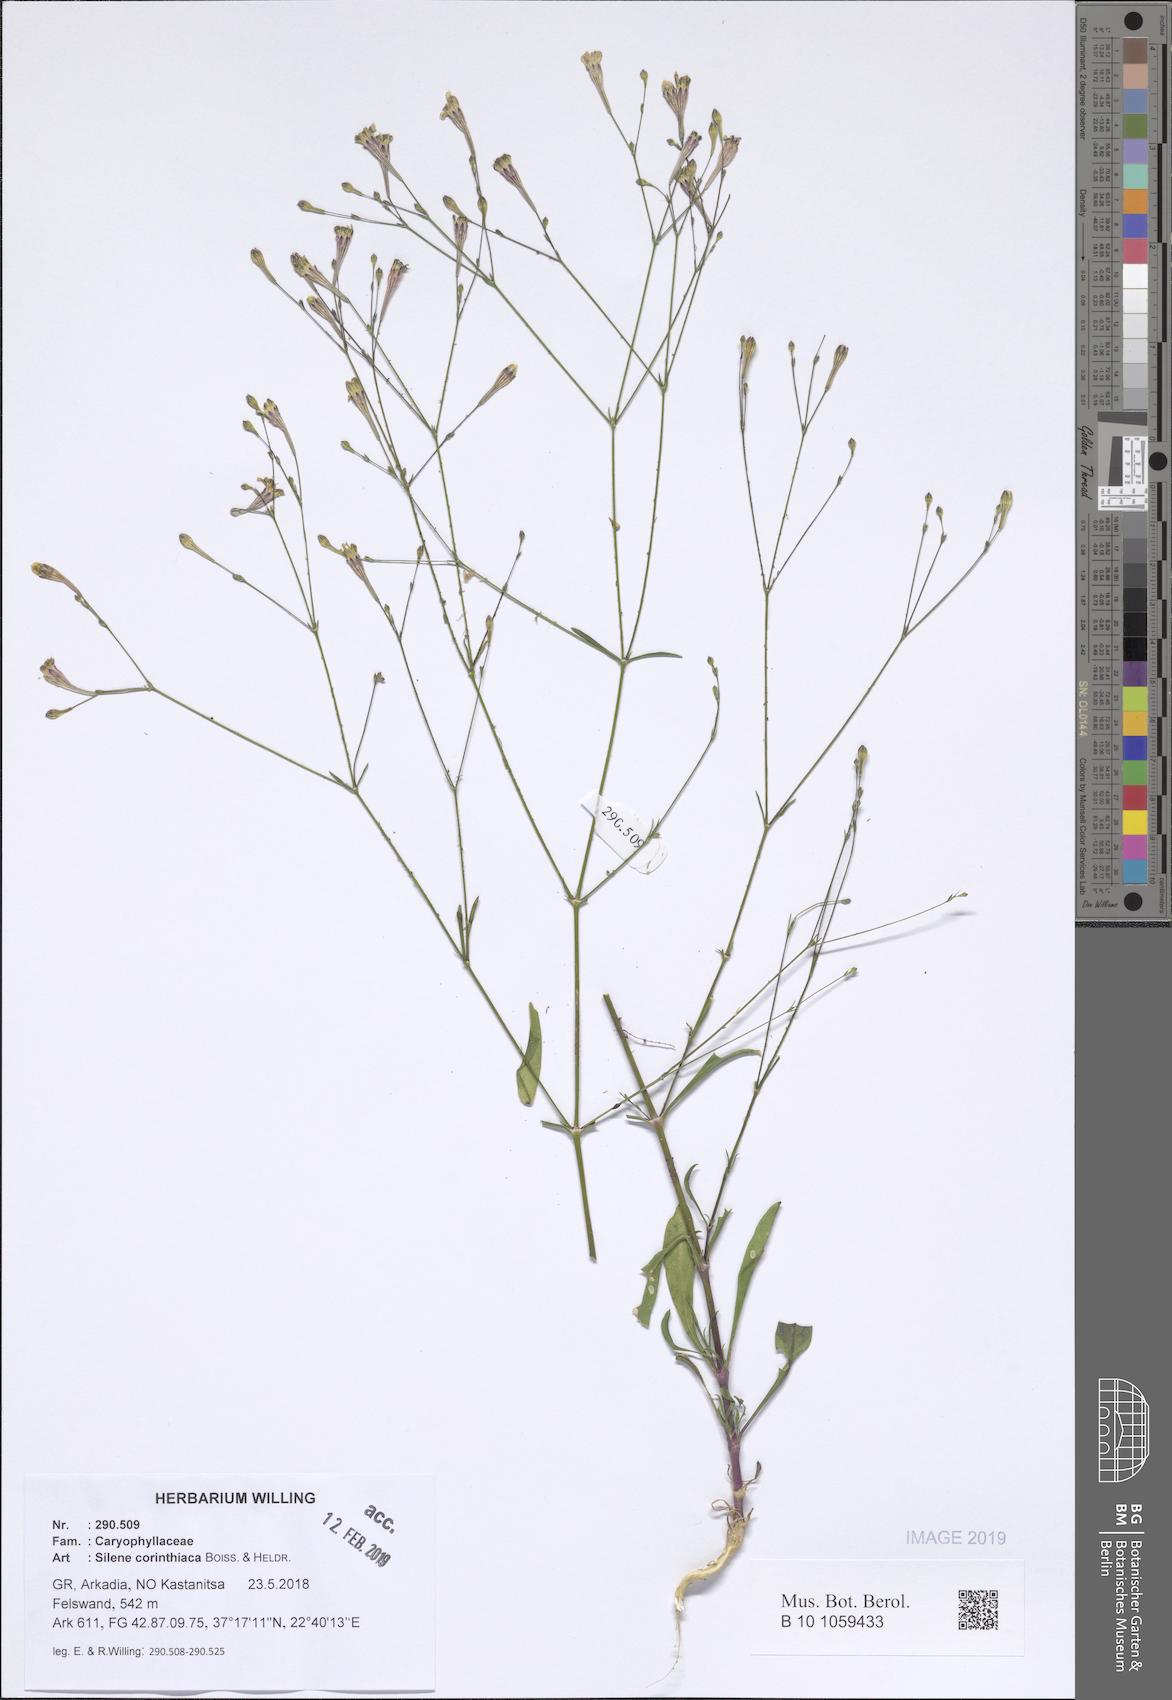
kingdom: Plantae
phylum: Tracheophyta
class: Magnoliopsida
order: Caryophyllales
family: Caryophyllaceae
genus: Silene
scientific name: Silene corinthiaca
